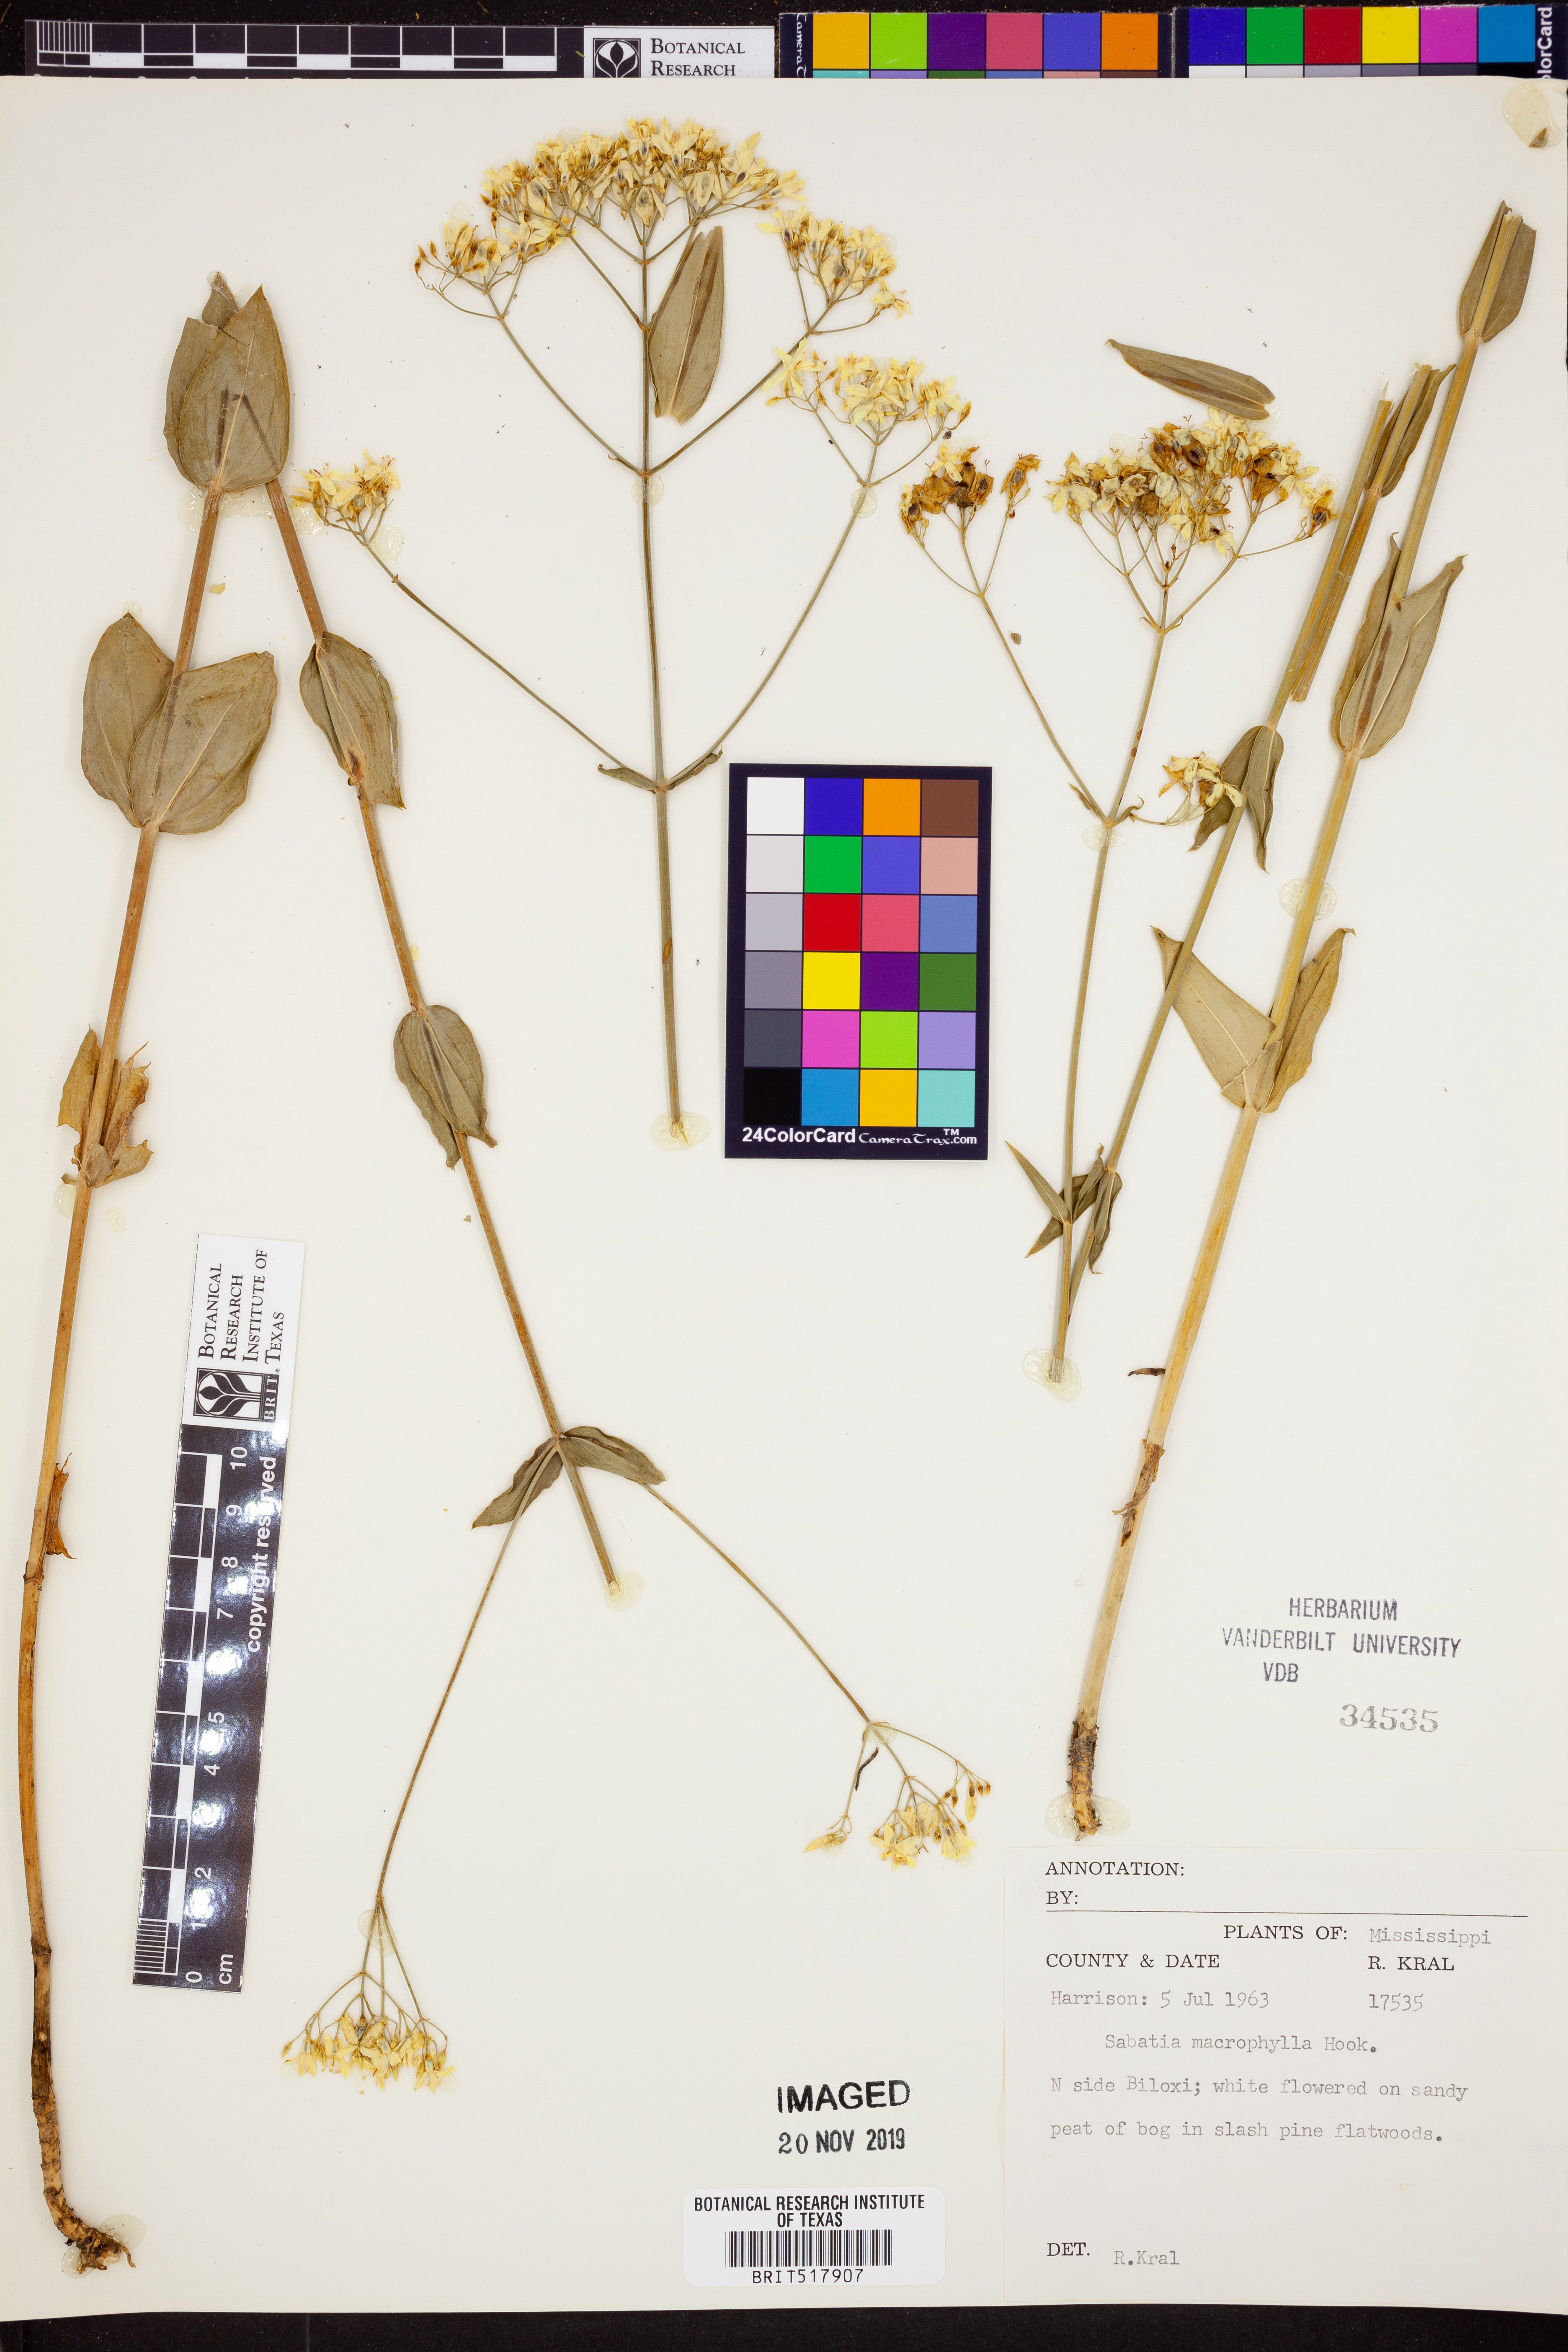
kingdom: Plantae
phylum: Tracheophyta
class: Magnoliopsida
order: Gentianales
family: Gentianaceae
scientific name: Gentianaceae
